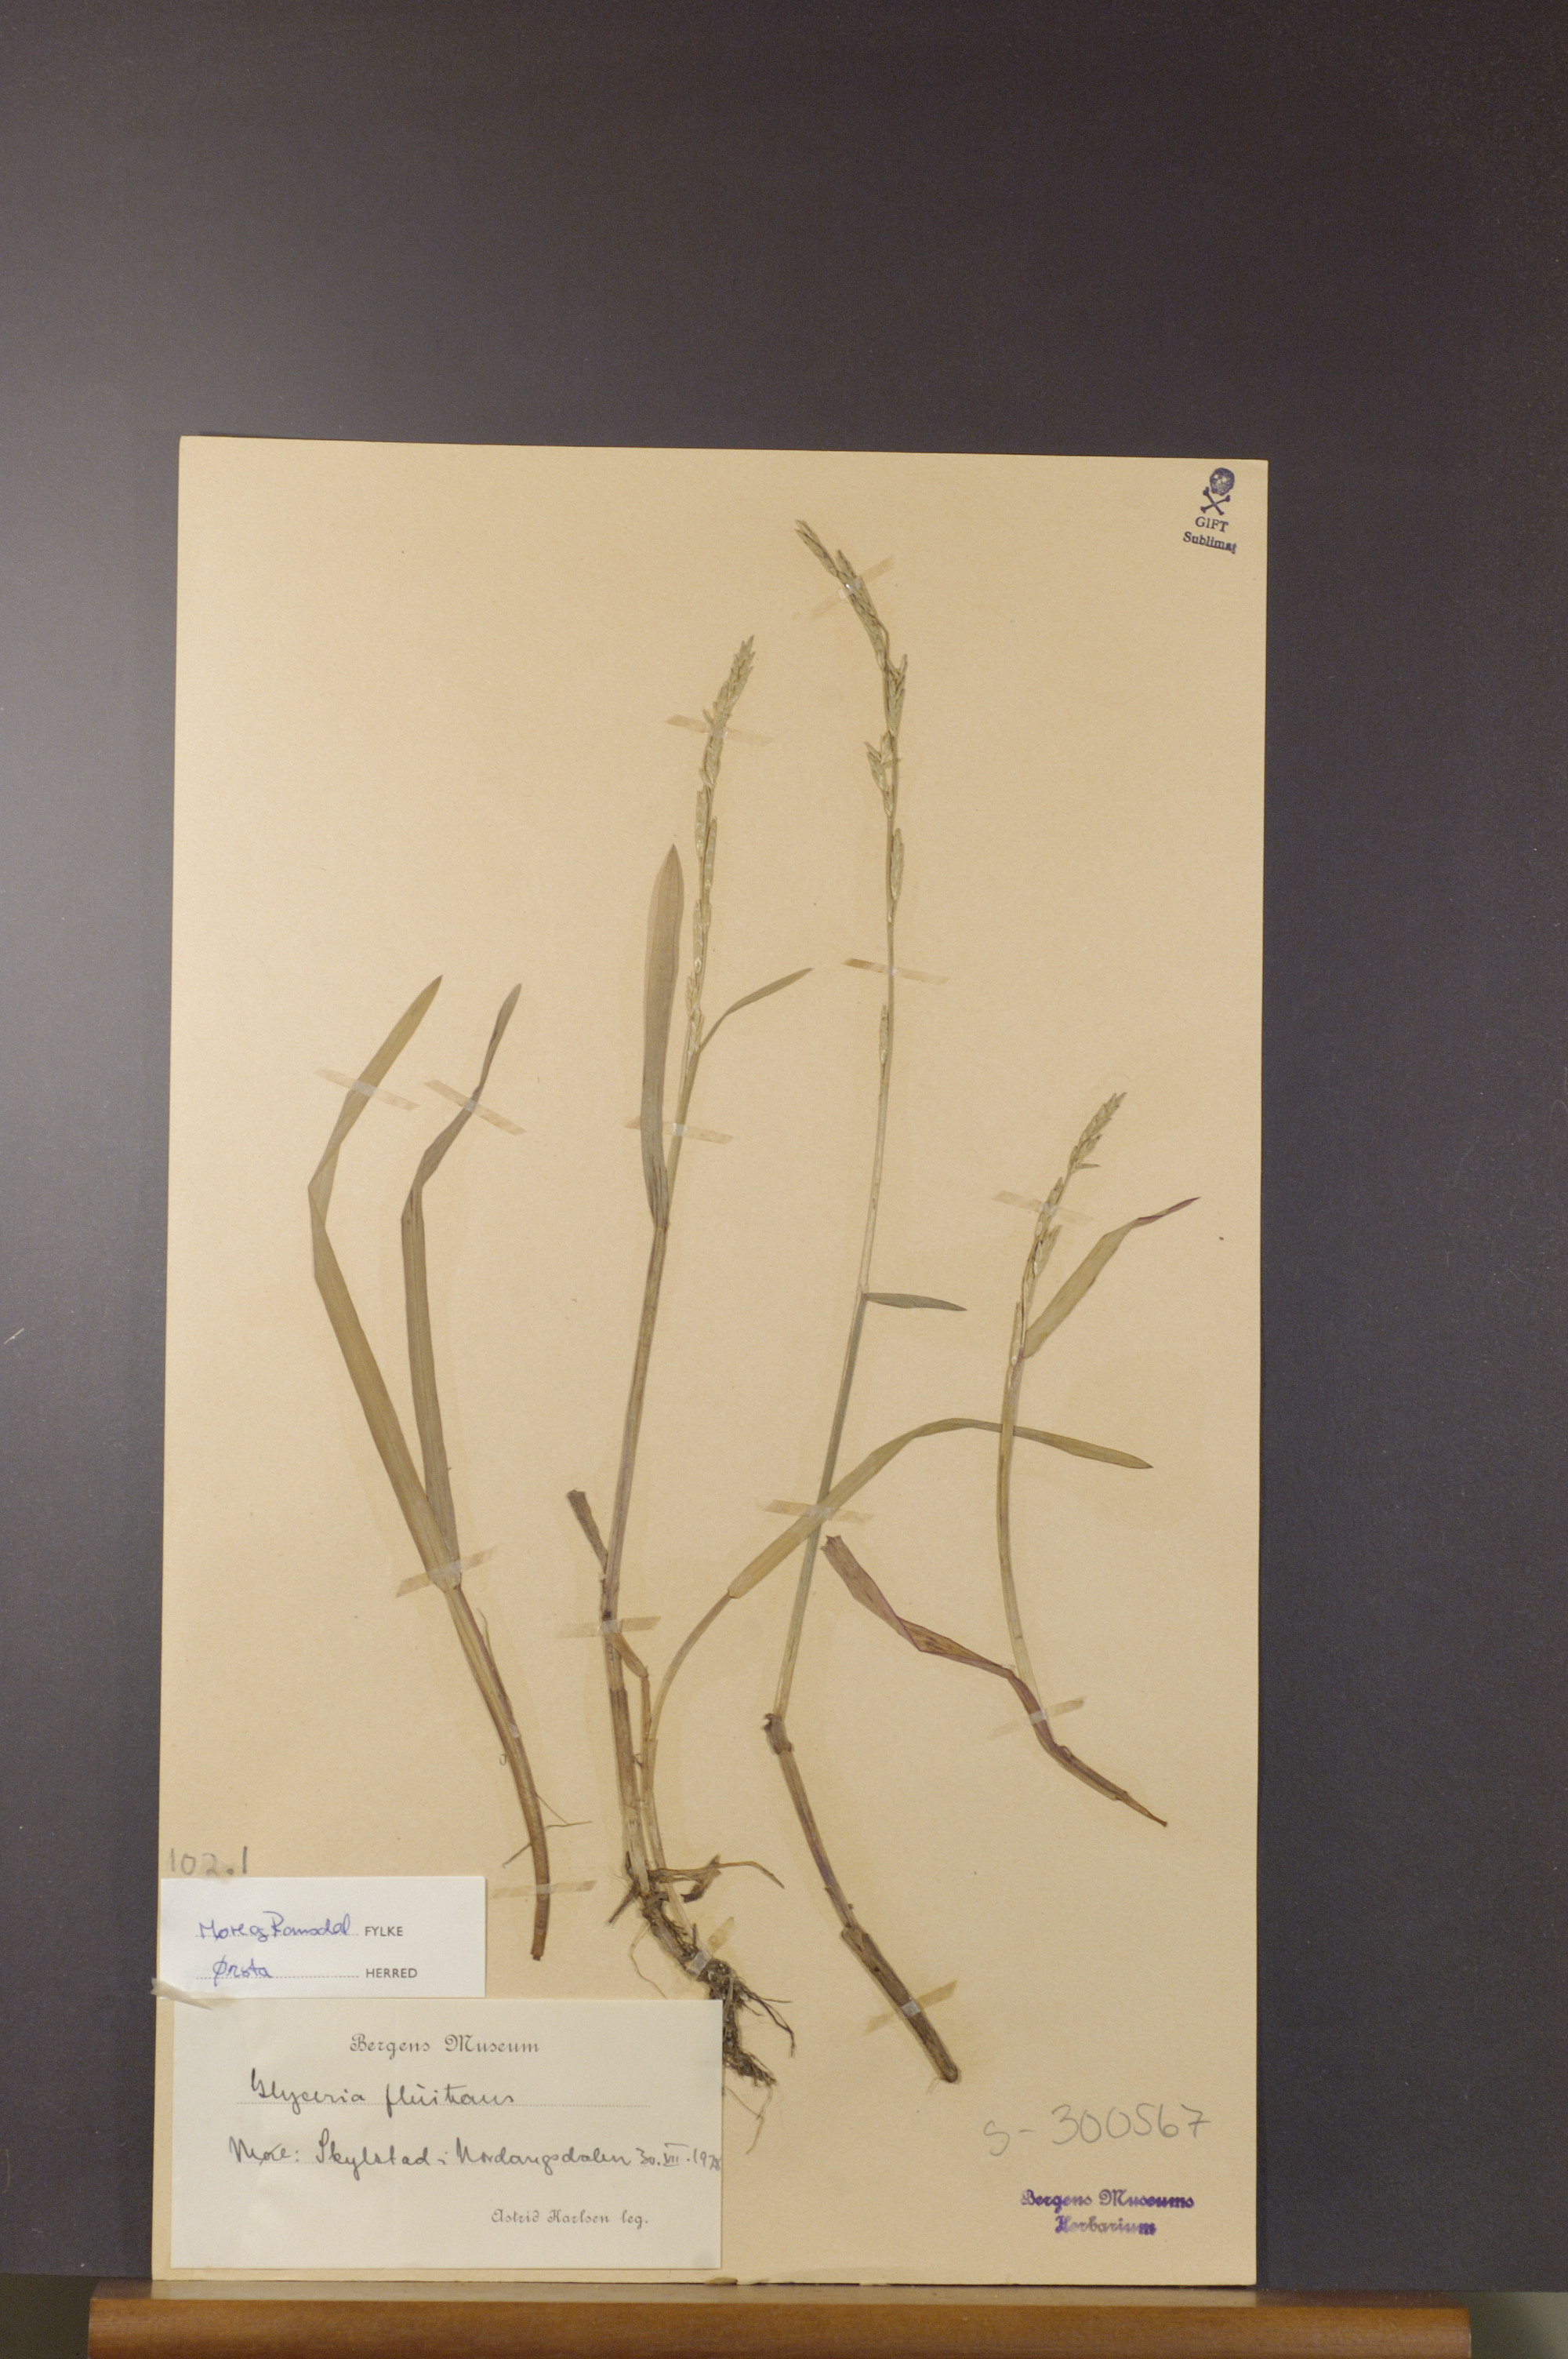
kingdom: Plantae
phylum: Tracheophyta
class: Liliopsida
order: Poales
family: Poaceae
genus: Glyceria
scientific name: Glyceria fluitans
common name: Floating sweet-grass
